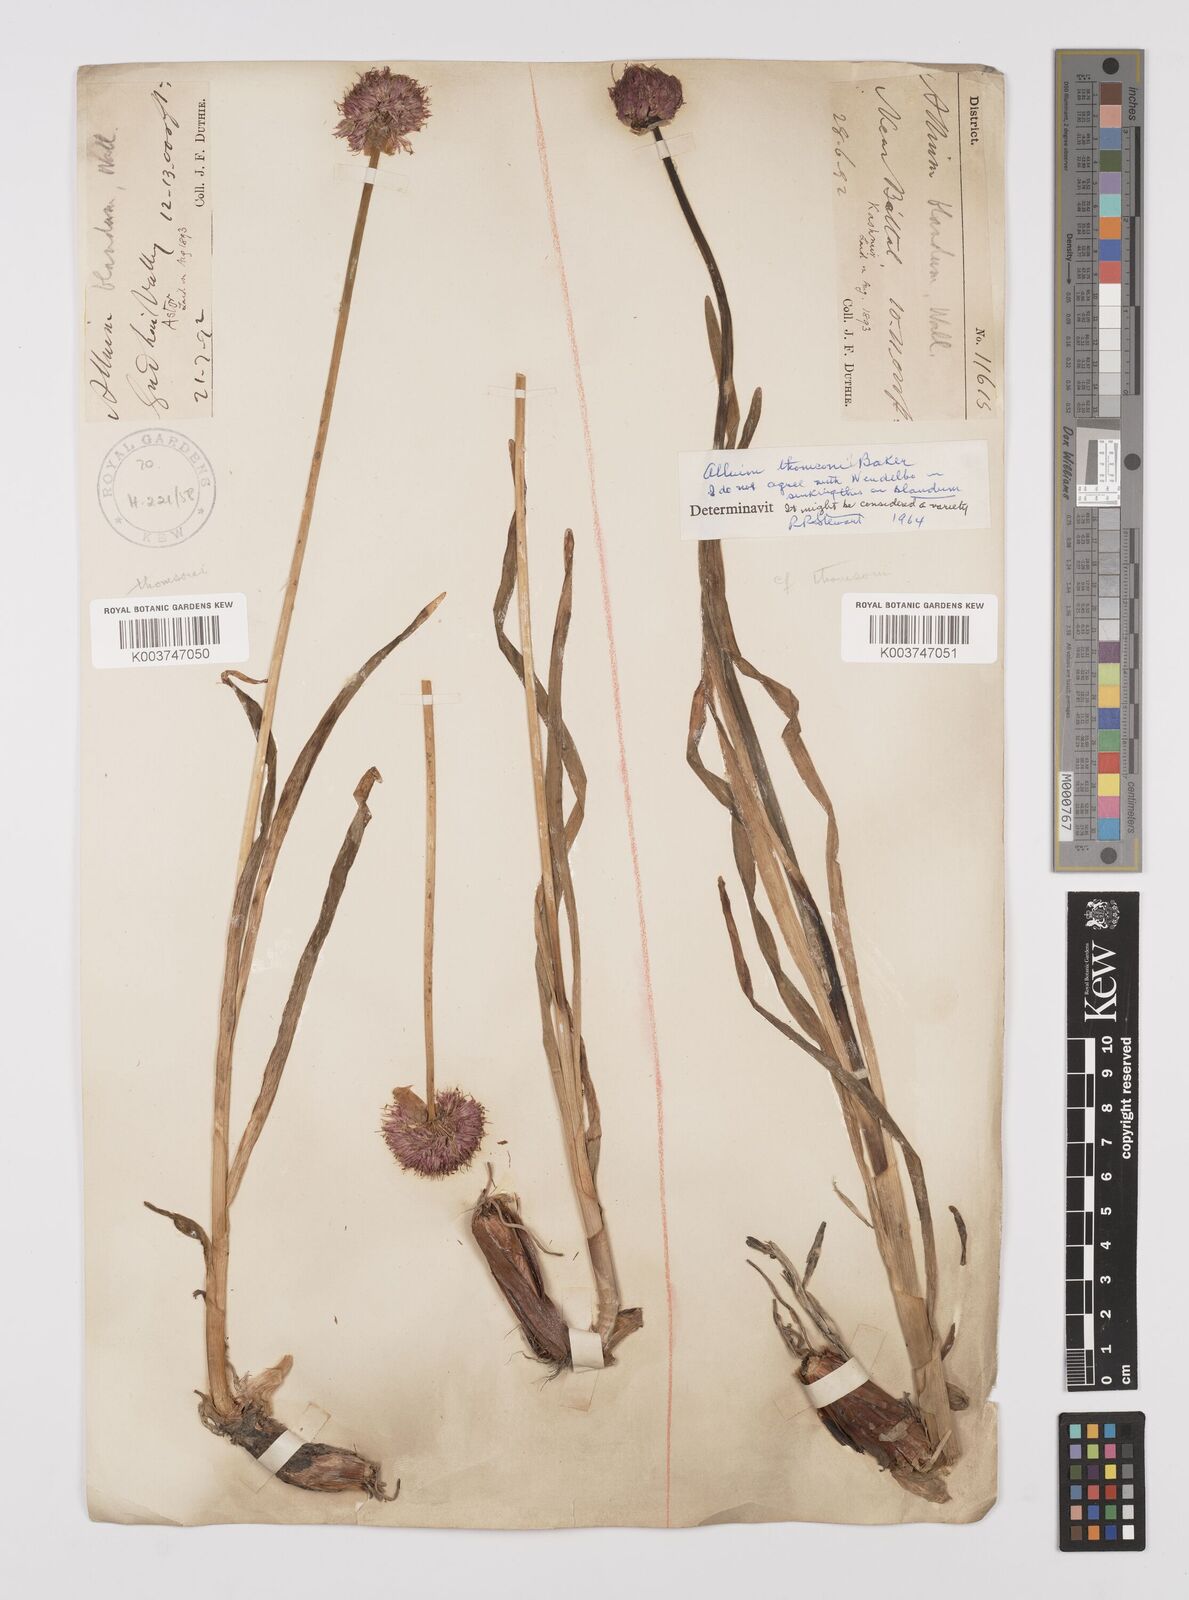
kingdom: Plantae
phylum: Tracheophyta
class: Liliopsida
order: Asparagales
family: Amaryllidaceae
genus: Allium
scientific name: Allium blandum
